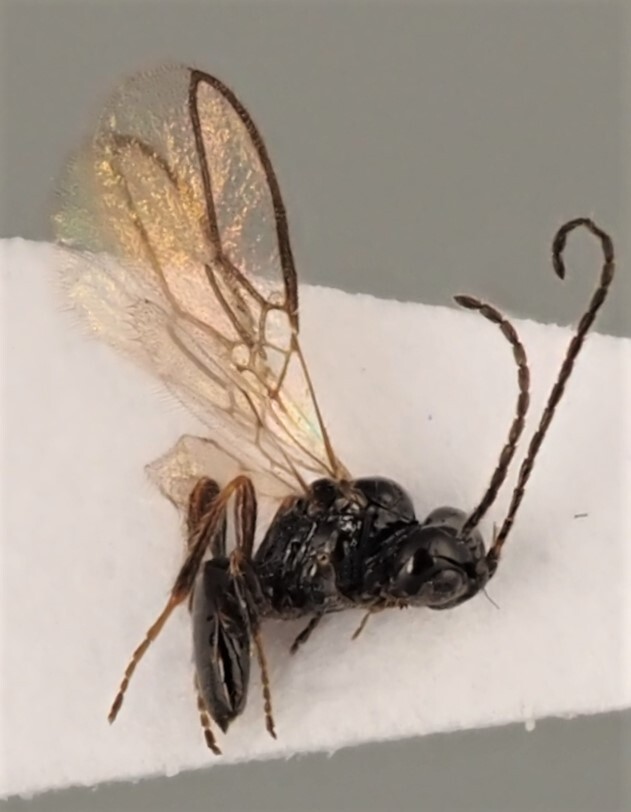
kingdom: Animalia
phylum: Arthropoda
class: Insecta
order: Hymenoptera
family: Braconidae
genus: Orthostigma
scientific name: Orthostigma laticeps
